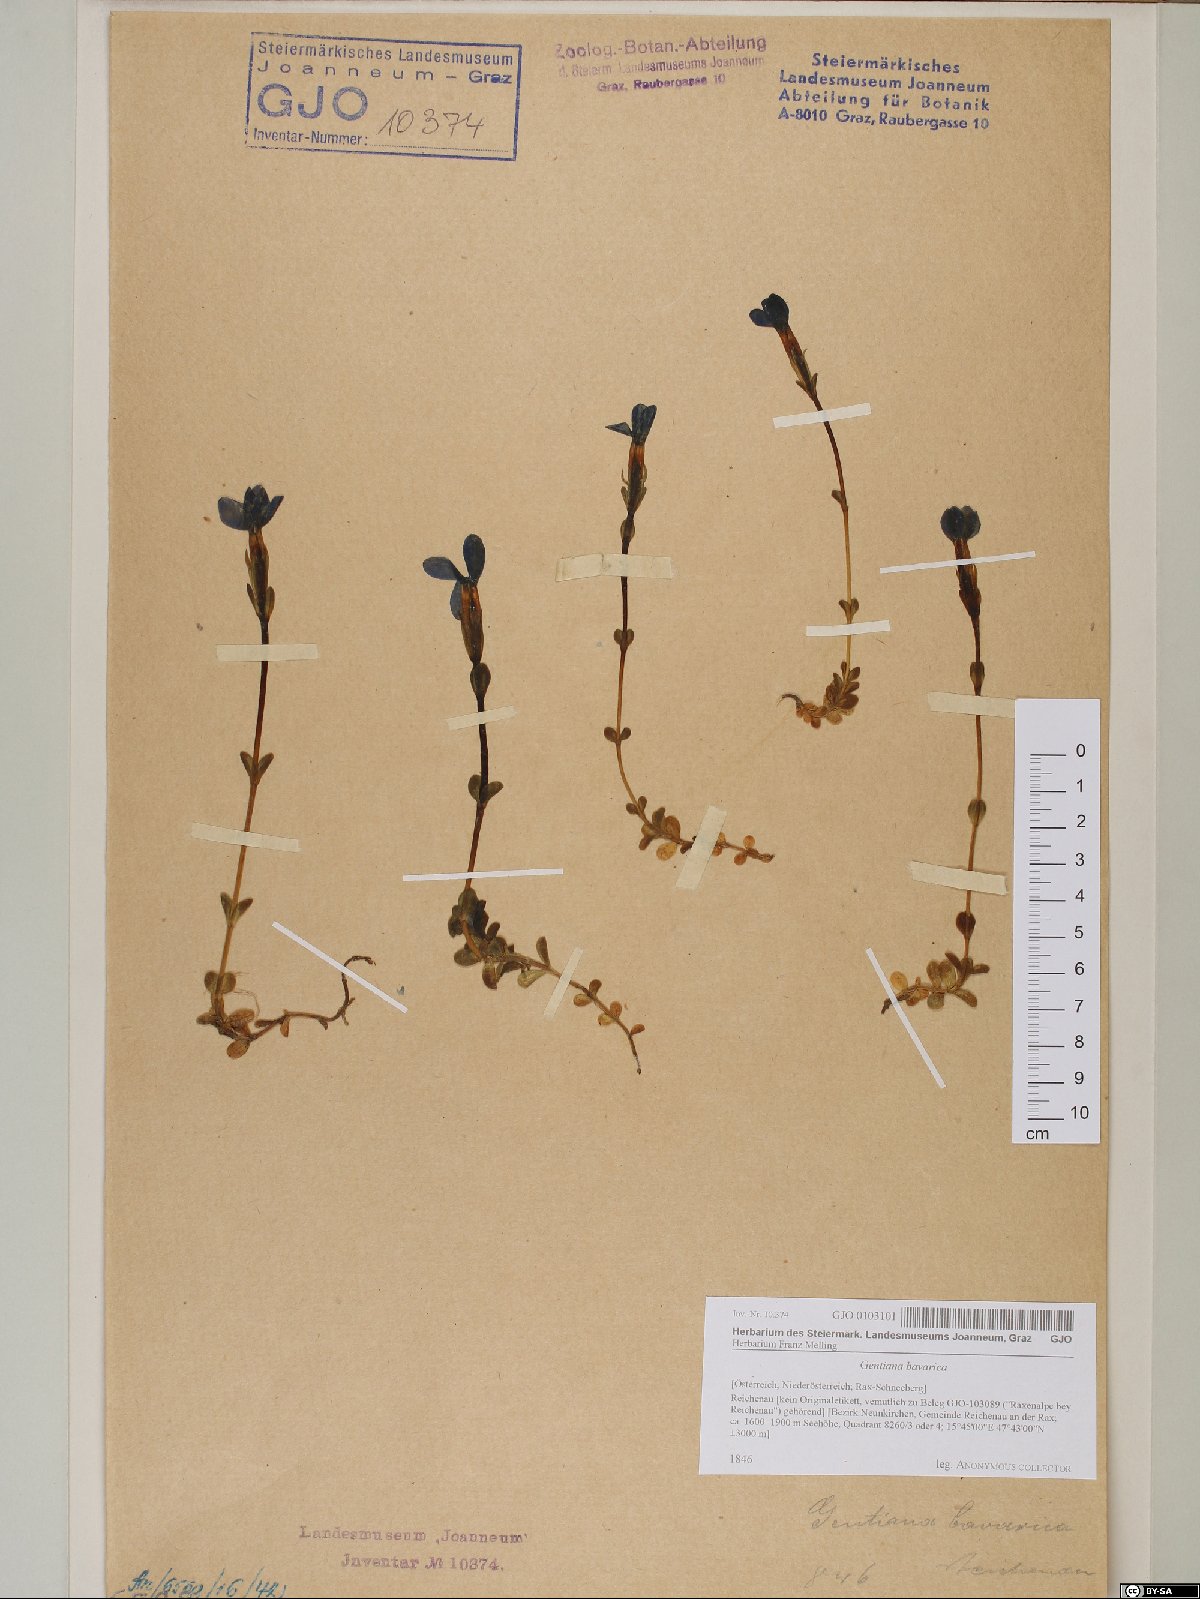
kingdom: Plantae
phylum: Tracheophyta
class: Magnoliopsida
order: Gentianales
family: Gentianaceae
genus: Gentiana
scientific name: Gentiana bavarica
